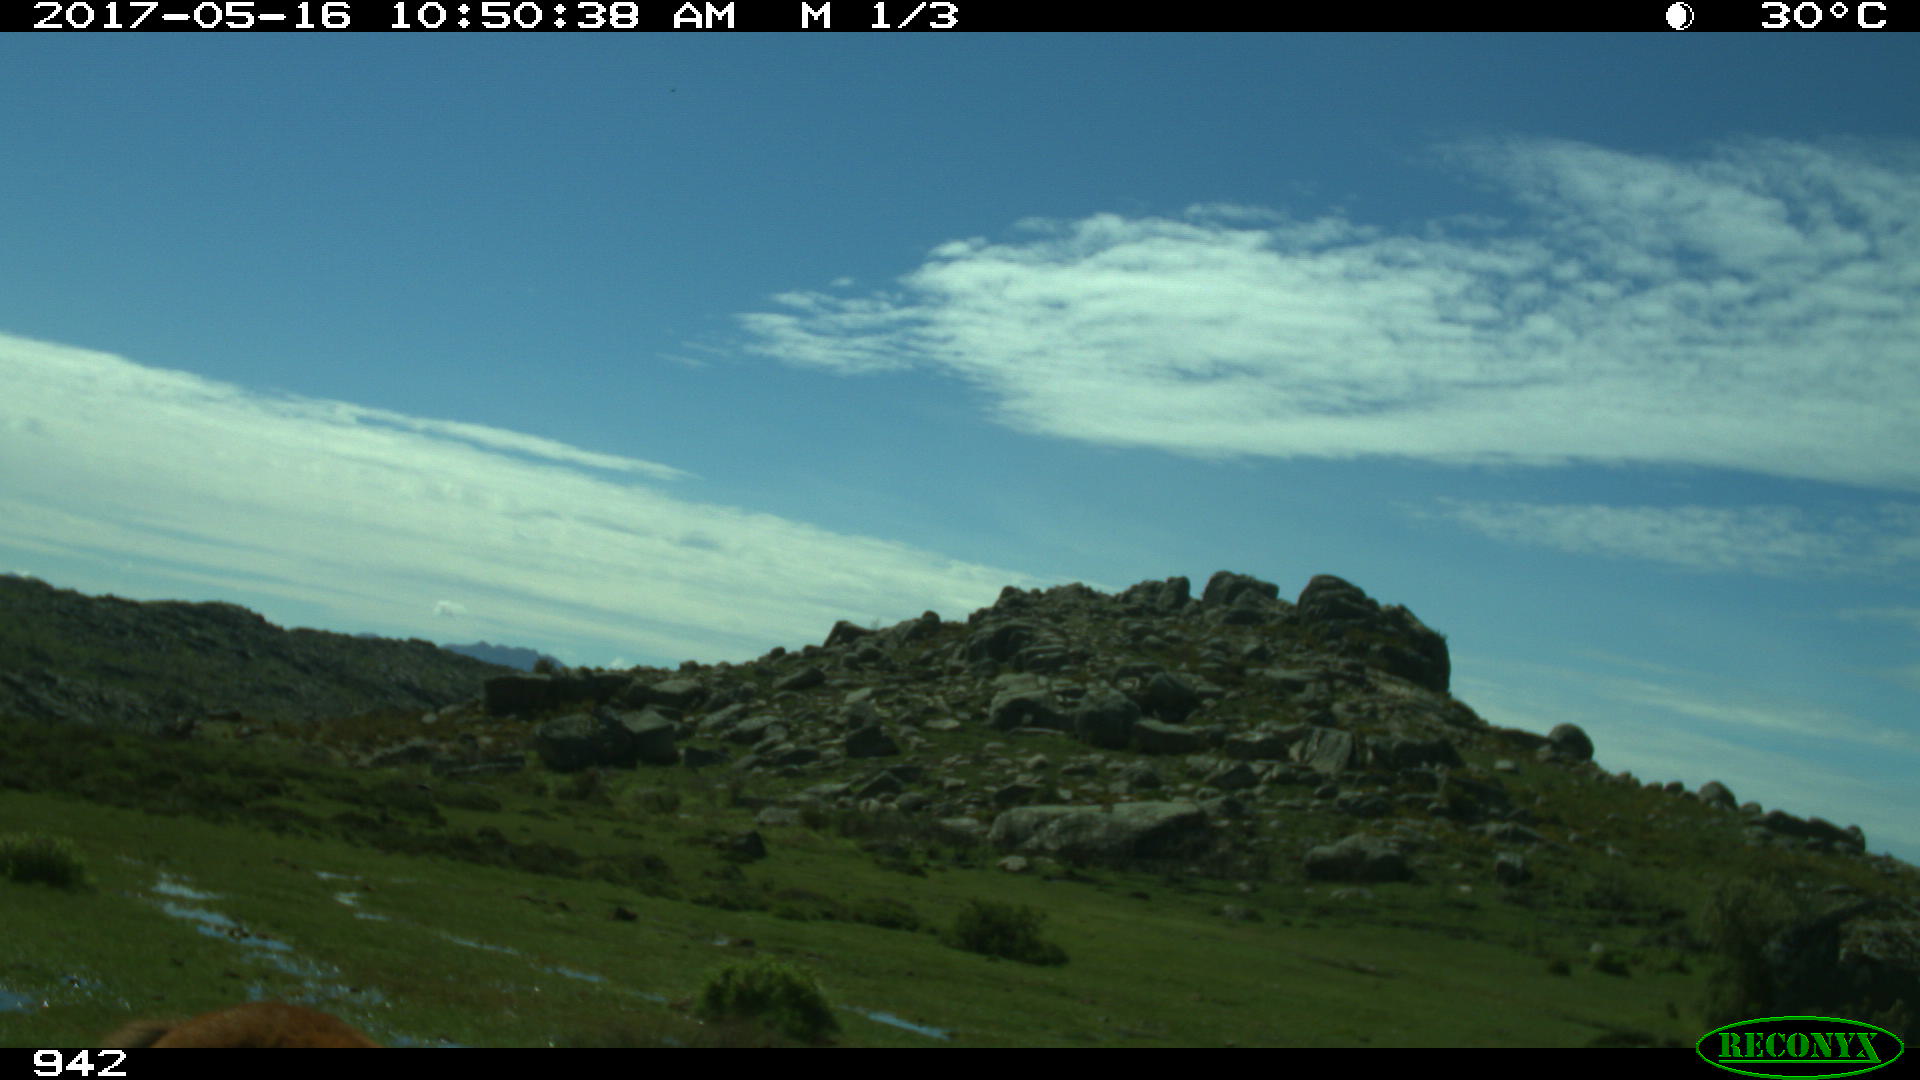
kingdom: Animalia
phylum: Chordata
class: Mammalia
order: Perissodactyla
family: Equidae
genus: Equus
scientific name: Equus caballus
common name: Horse
